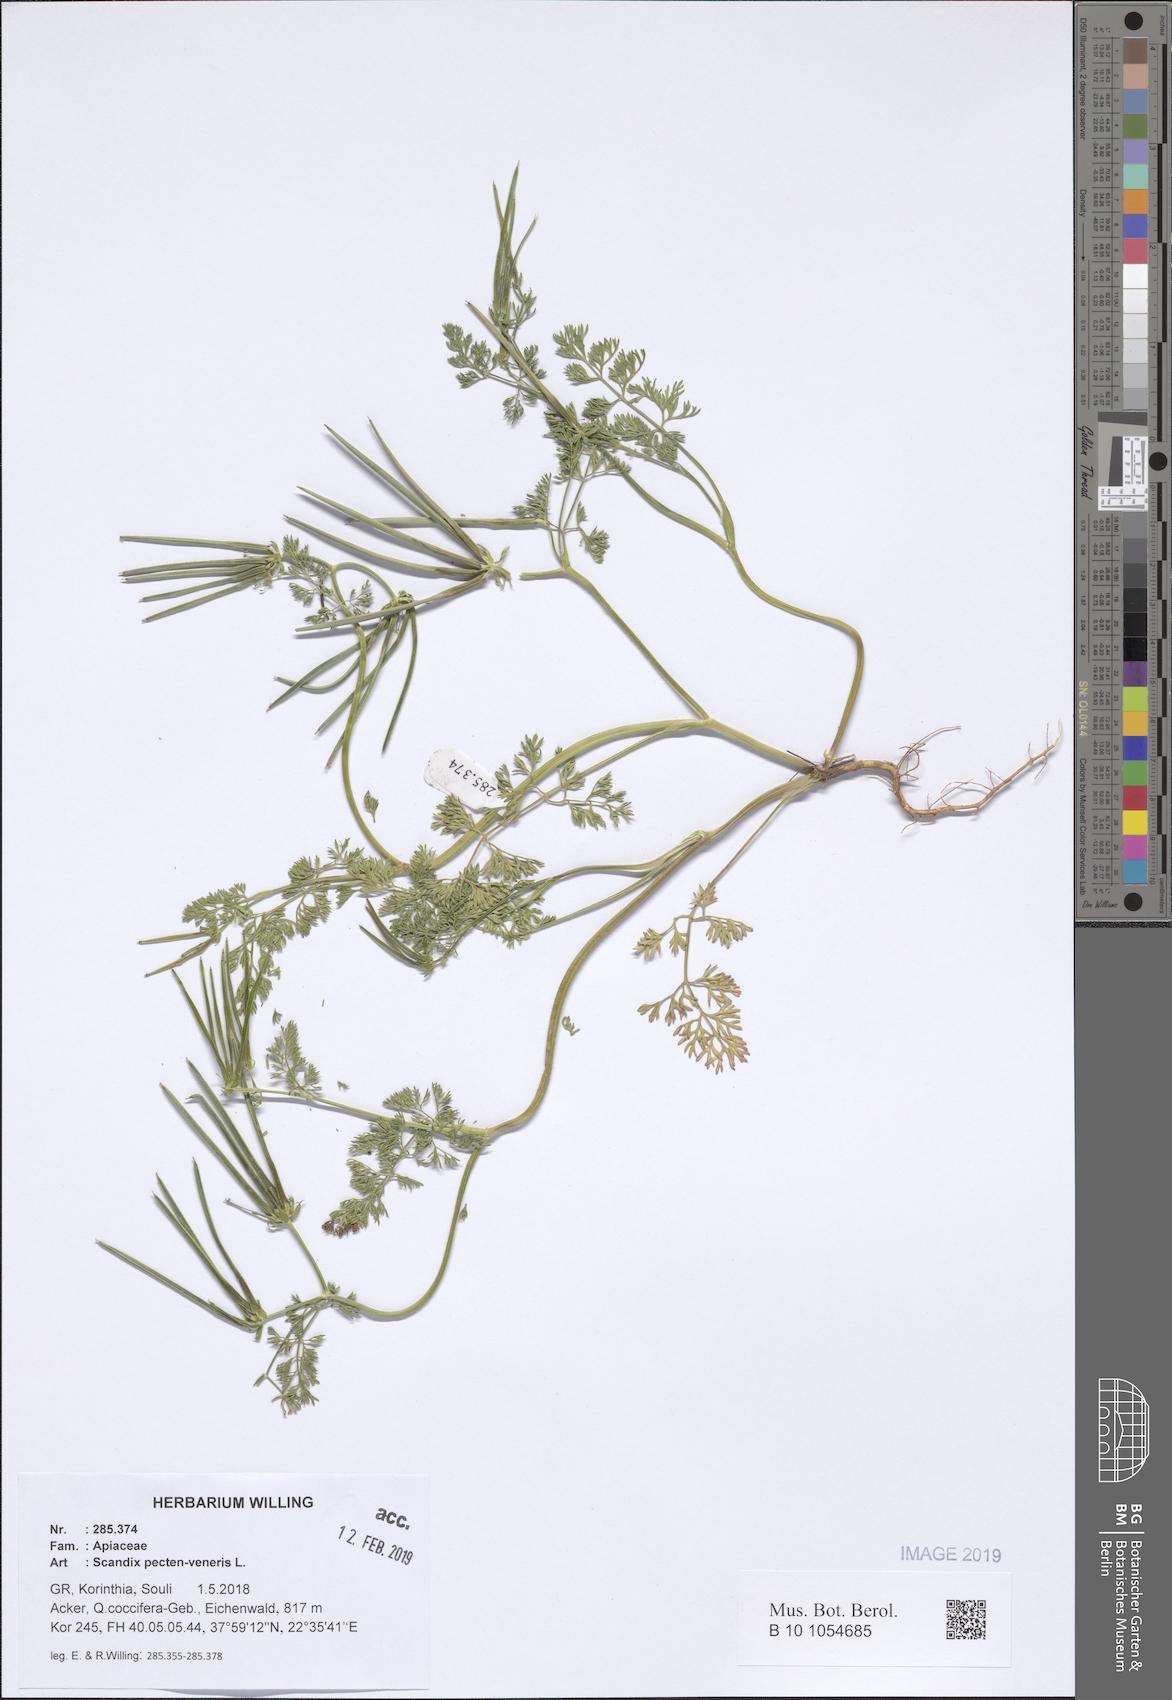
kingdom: Plantae
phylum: Tracheophyta
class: Magnoliopsida
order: Apiales
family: Apiaceae
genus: Scandix
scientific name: Scandix pecten-veneris
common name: Shepherd's-needle
